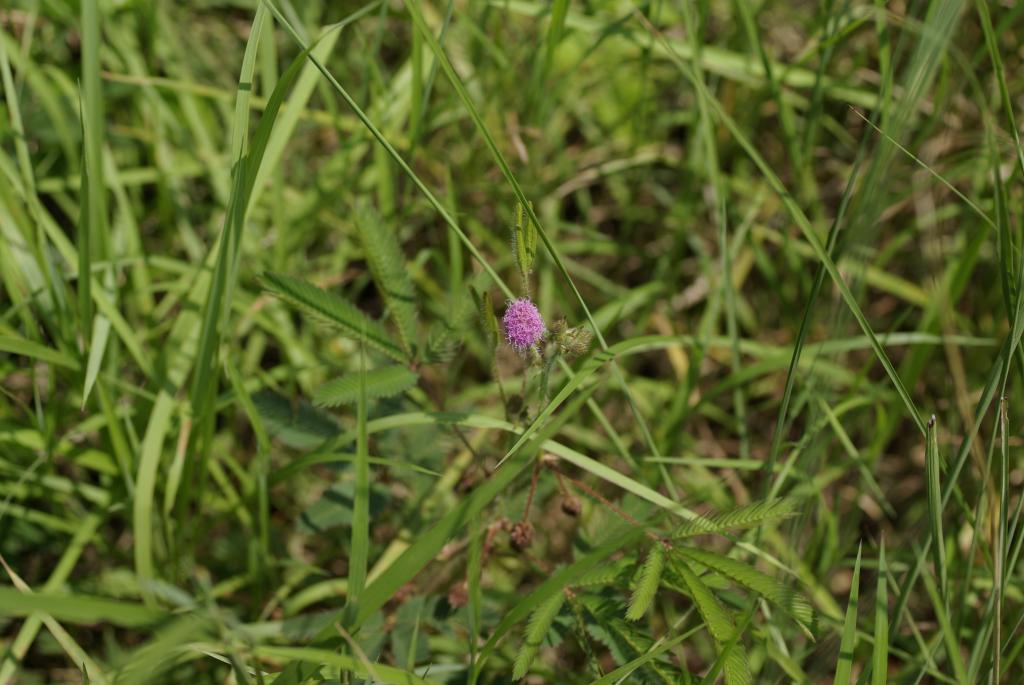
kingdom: Plantae
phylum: Tracheophyta
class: Magnoliopsida
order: Fabales
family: Fabaceae
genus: Mimosa
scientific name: Mimosa pudica
